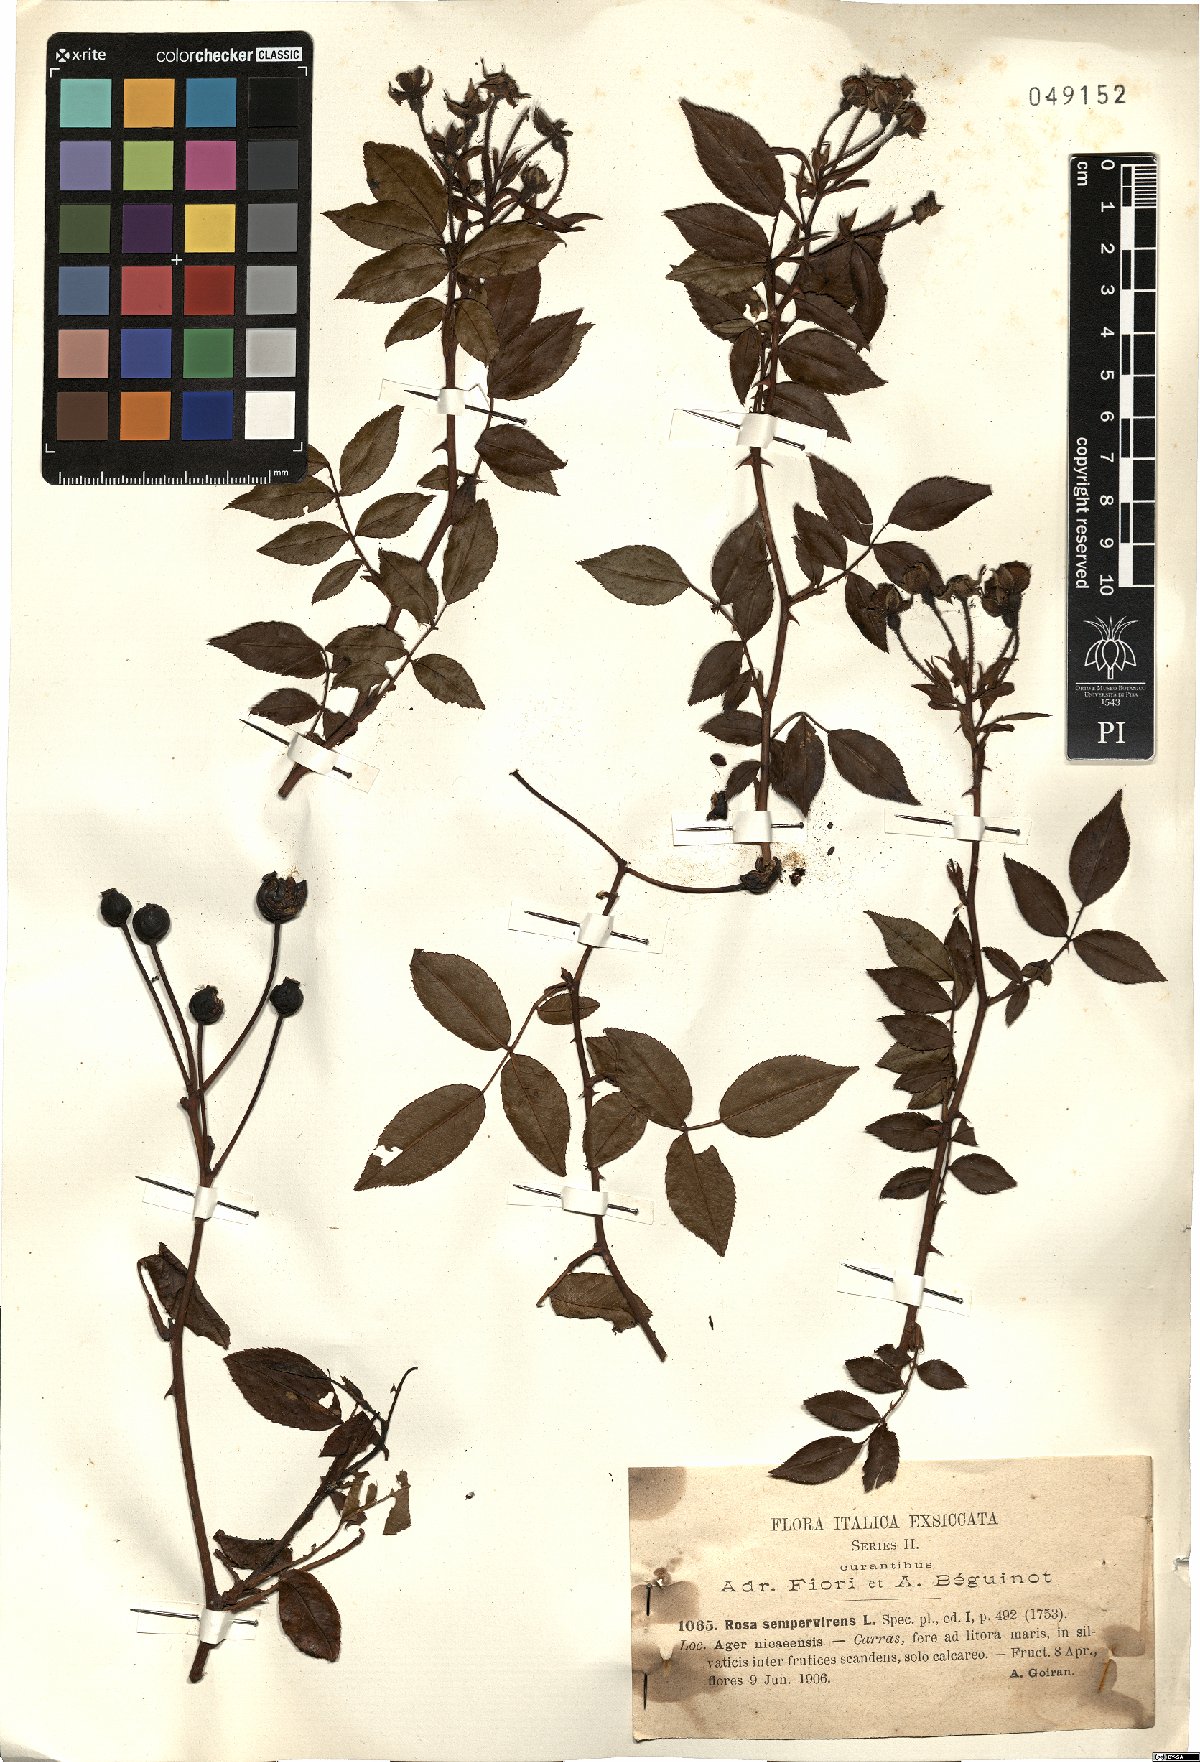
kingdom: Plantae
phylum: Tracheophyta
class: Magnoliopsida
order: Rosales
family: Rosaceae
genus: Rosa
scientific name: Rosa sempervirens
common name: Evergreen rose
